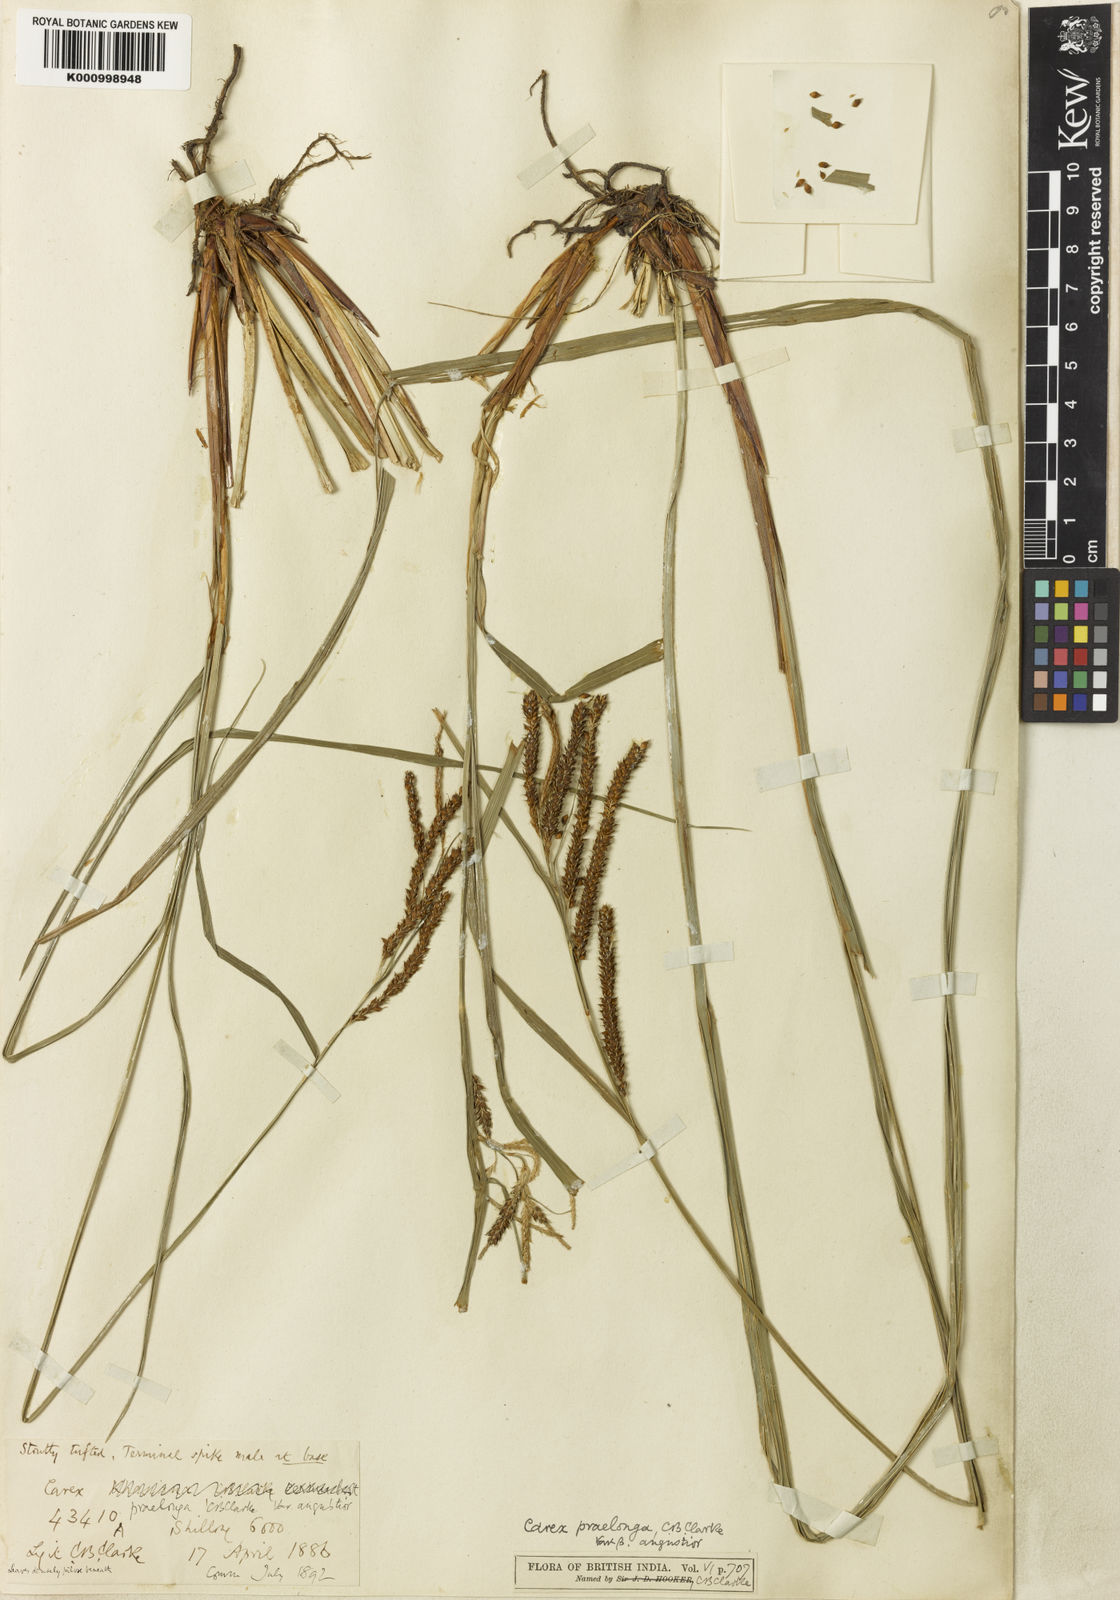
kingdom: Plantae
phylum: Tracheophyta
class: Liliopsida
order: Poales
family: Cyperaceae
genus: Carex
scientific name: Carex praelonga
